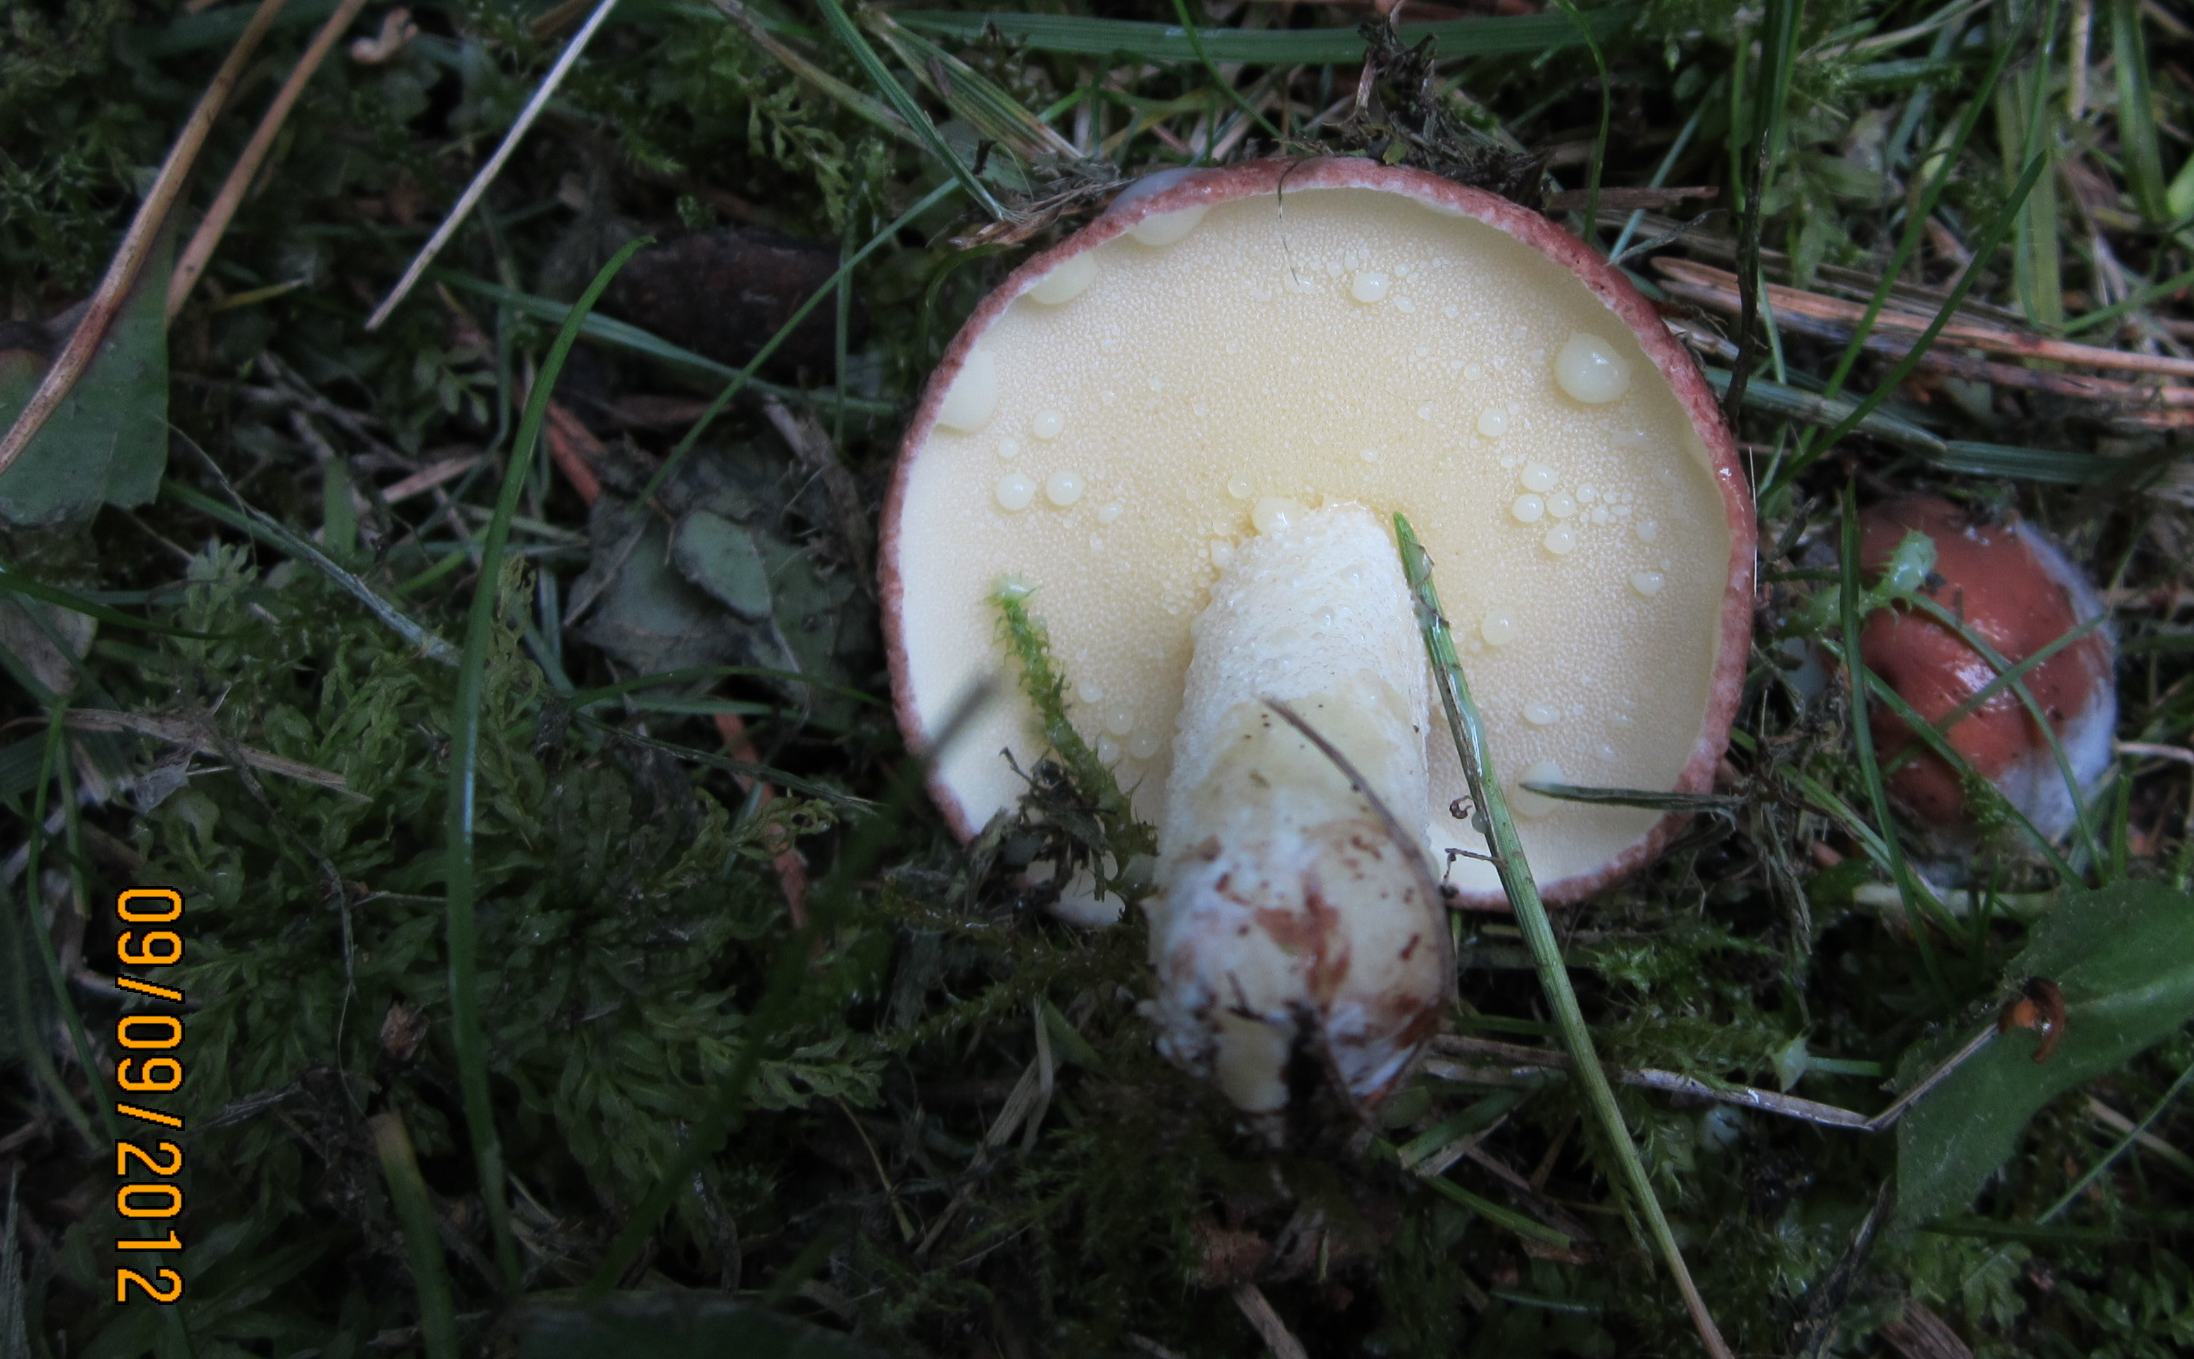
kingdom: Fungi
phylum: Basidiomycota
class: Agaricomycetes
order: Boletales
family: Suillaceae
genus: Suillus
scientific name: Suillus granulatus
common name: kornet slimrørhat
